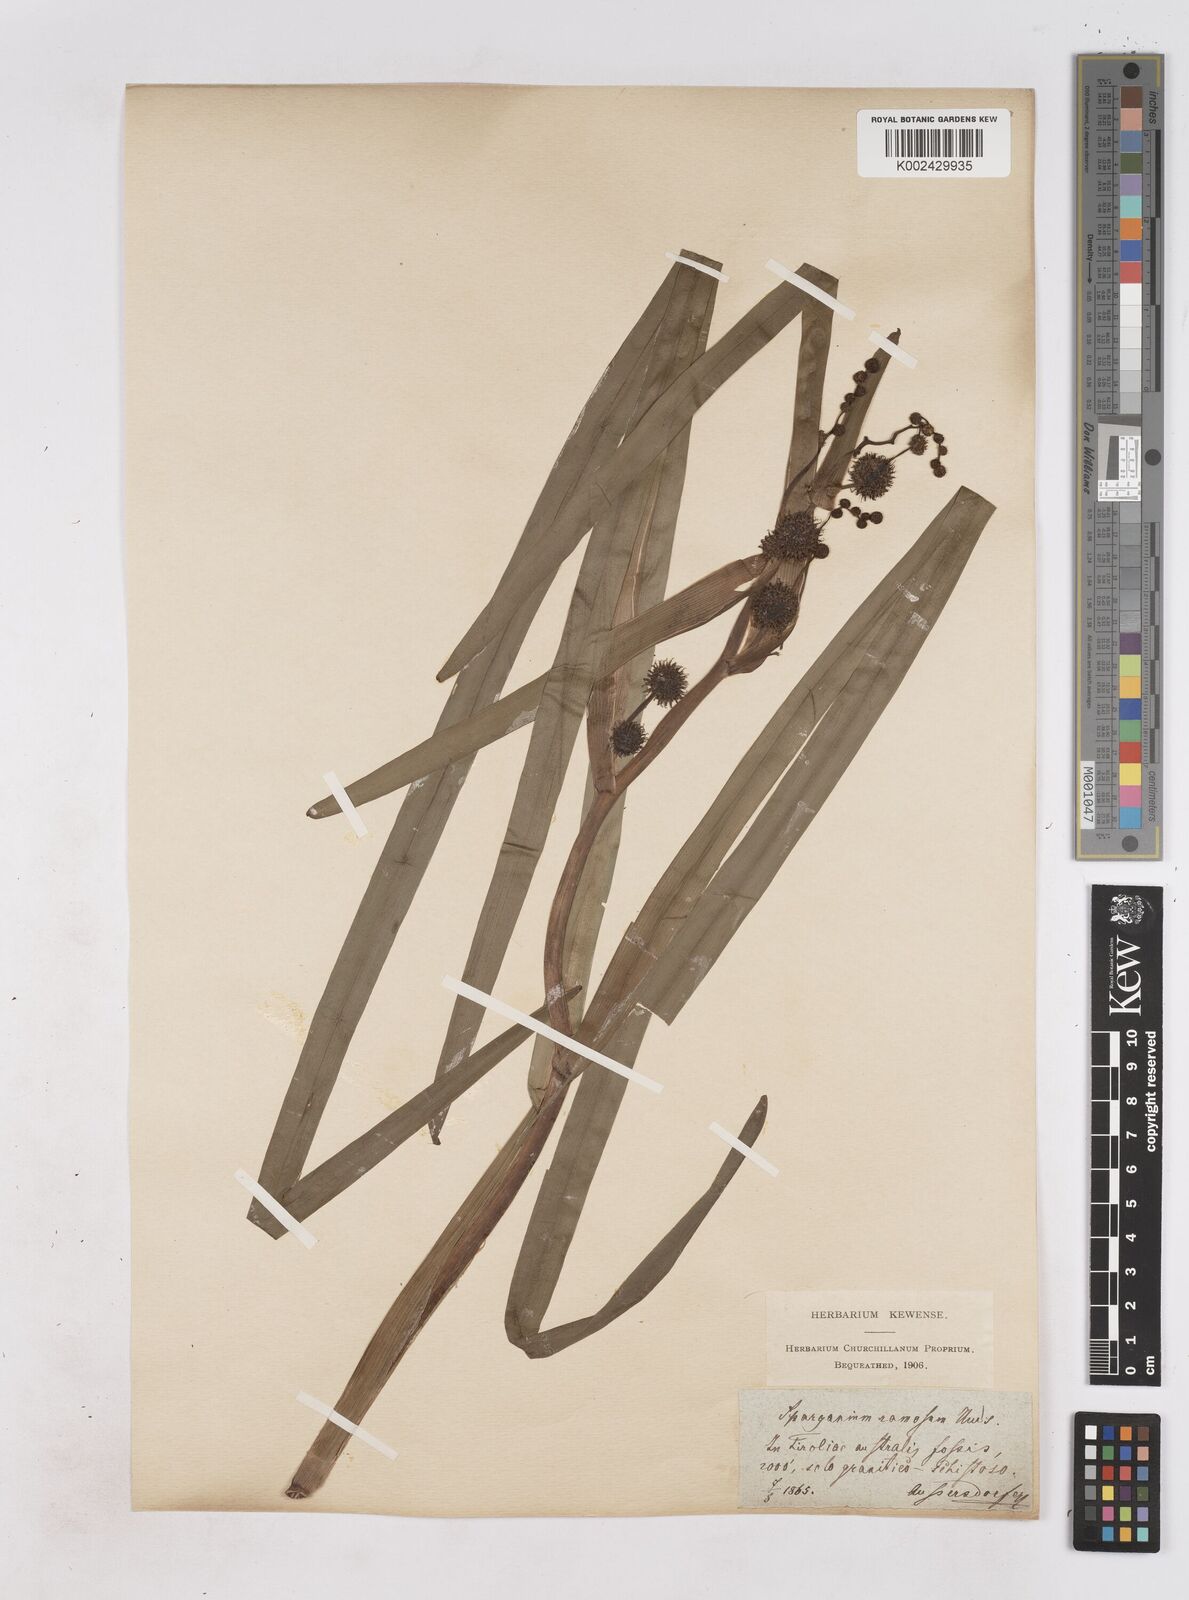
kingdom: Plantae
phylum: Tracheophyta
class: Liliopsida
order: Poales
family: Typhaceae
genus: Sparganium
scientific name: Sparganium erectum
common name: Branched bur-reed
